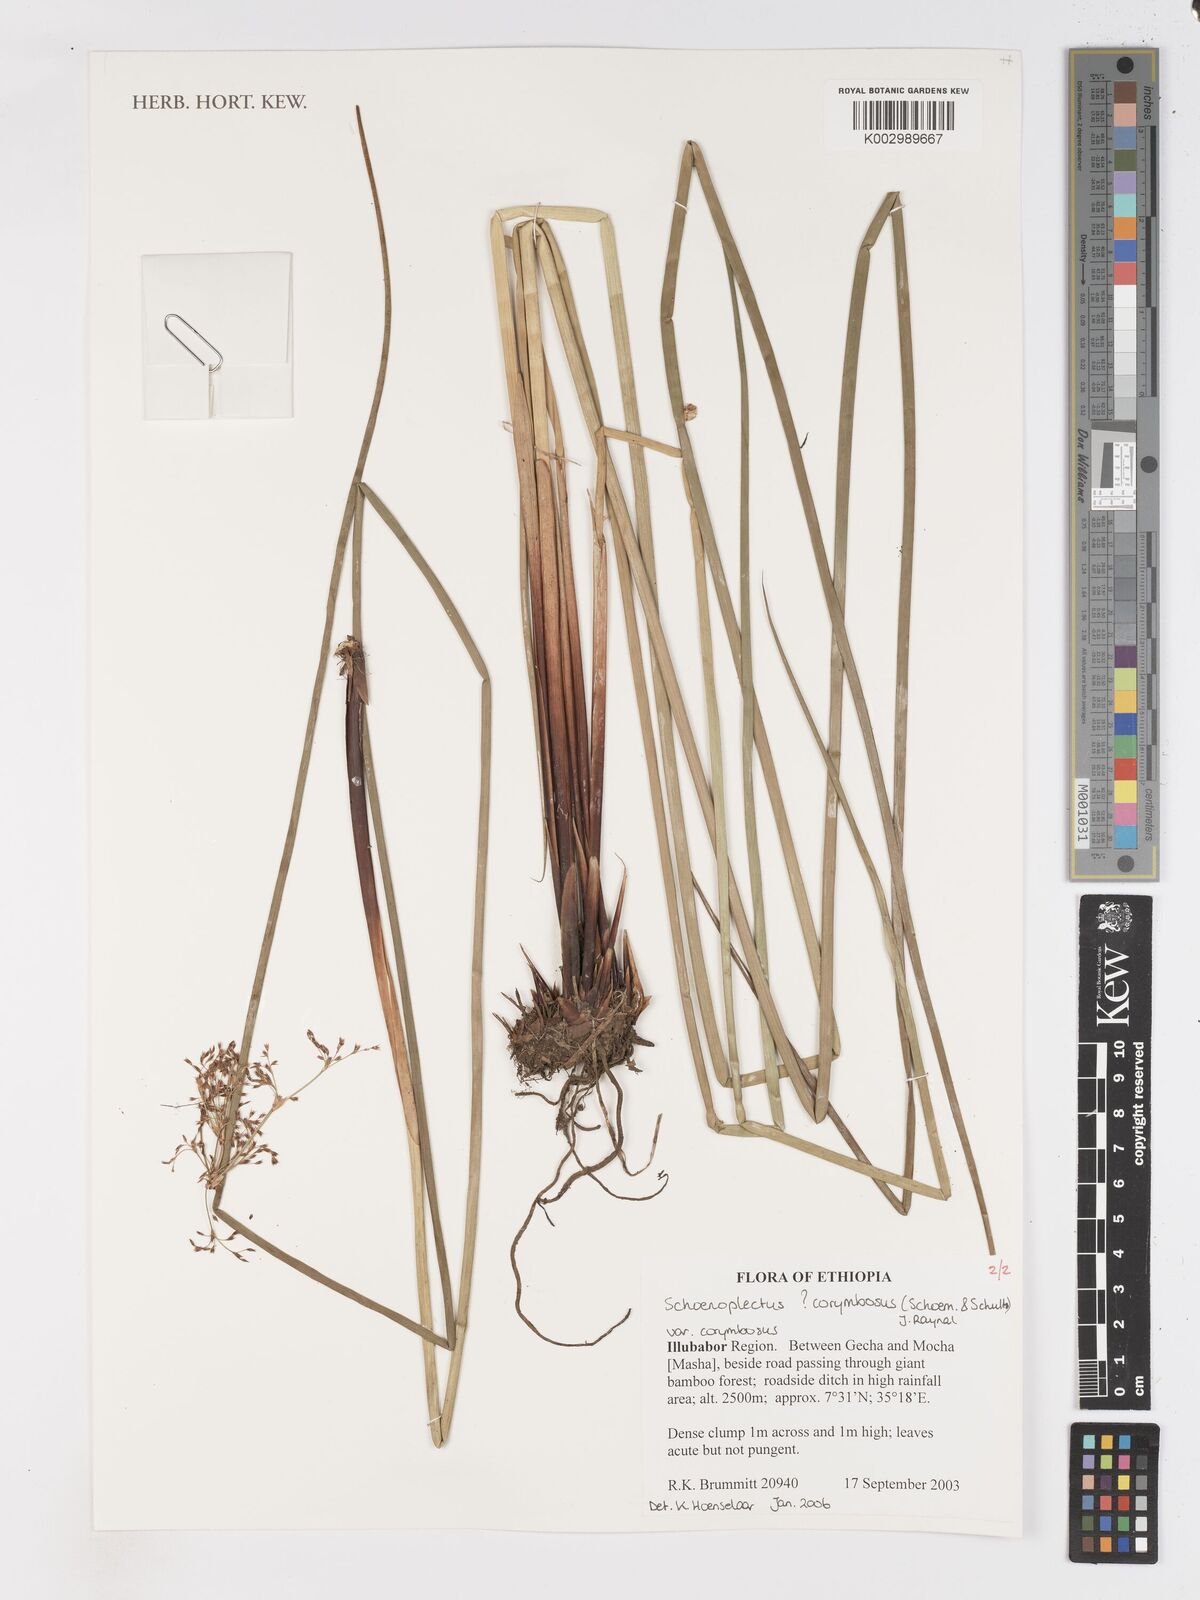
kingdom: Plantae
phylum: Tracheophyta
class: Liliopsida
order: Poales
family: Cyperaceae
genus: Schoenoplectiella
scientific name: Schoenoplectiella corymbosa
